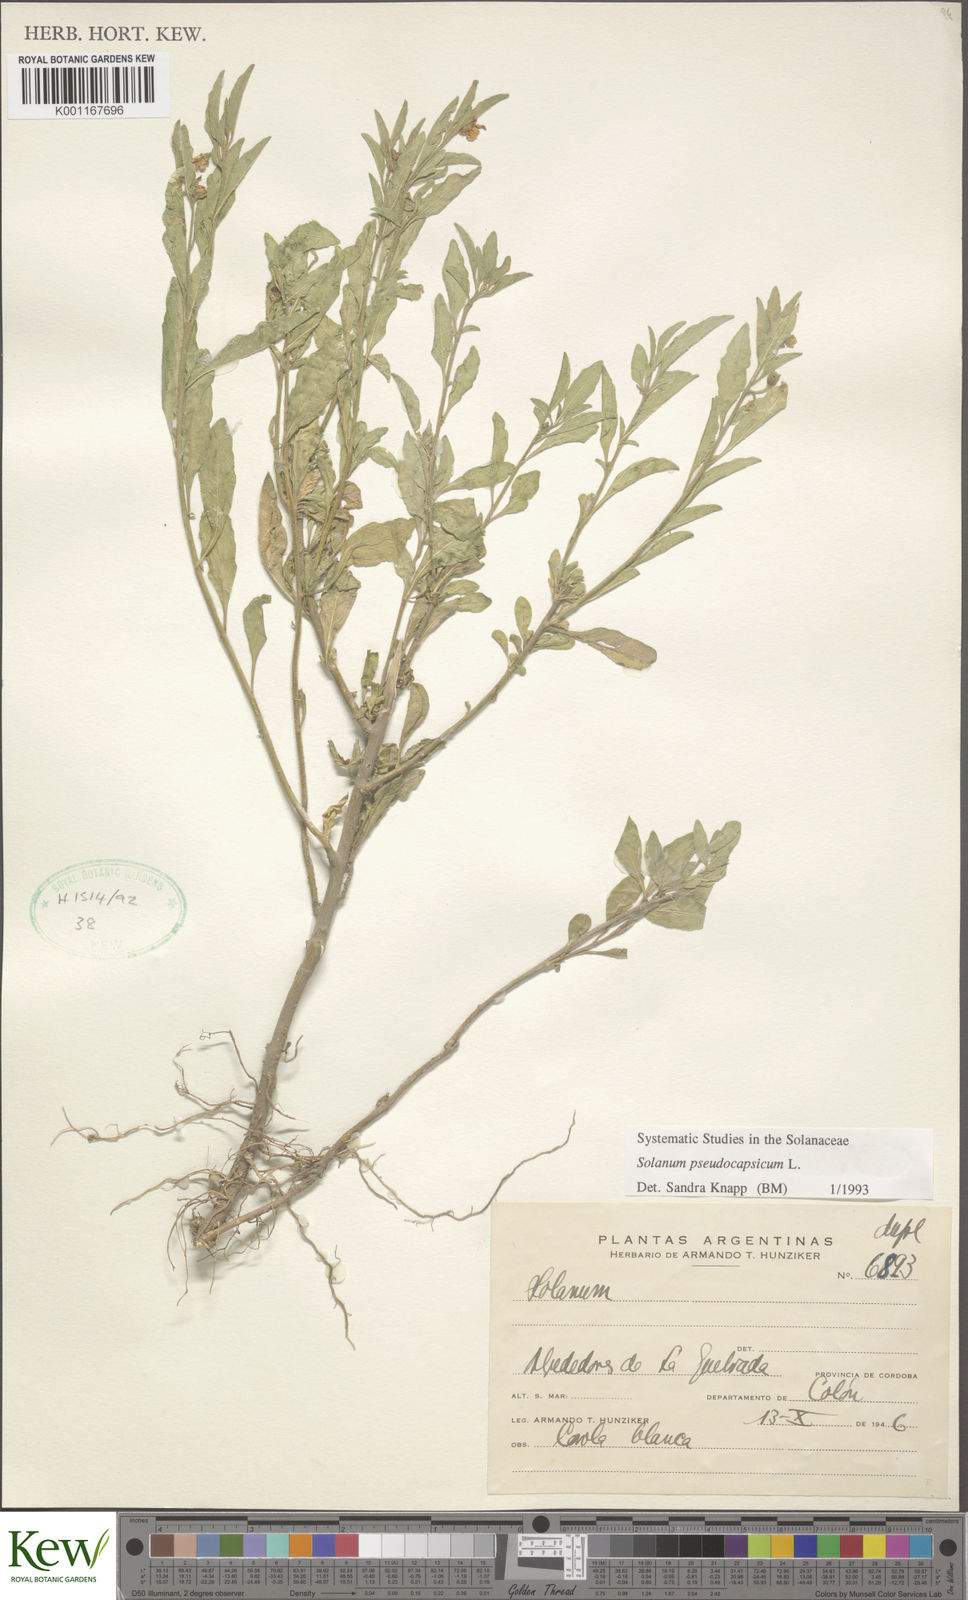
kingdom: Plantae
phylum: Tracheophyta
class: Magnoliopsida
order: Solanales
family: Solanaceae
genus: Solanum
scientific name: Solanum pseudocapsicum
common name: Jerusalem cherry
